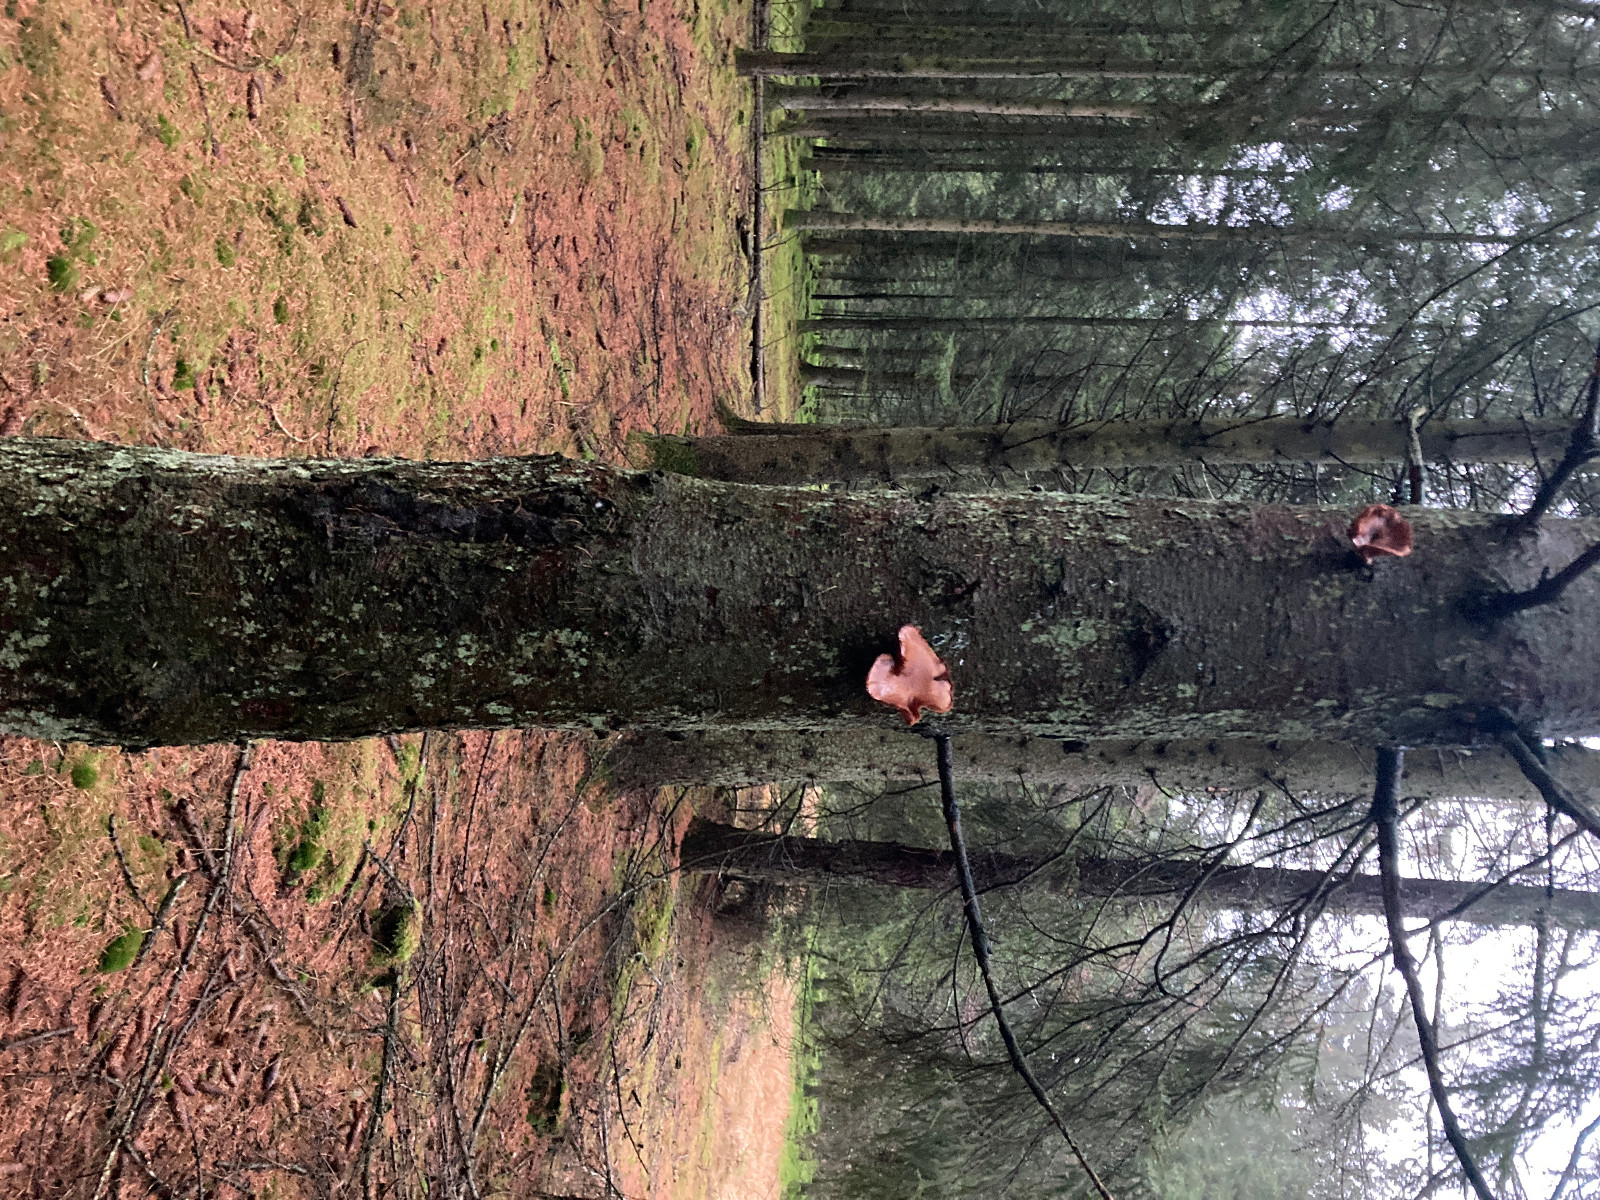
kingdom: Fungi
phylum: Basidiomycota
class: Agaricomycetes
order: Agaricales
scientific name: Agaricales
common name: champignonordenen
